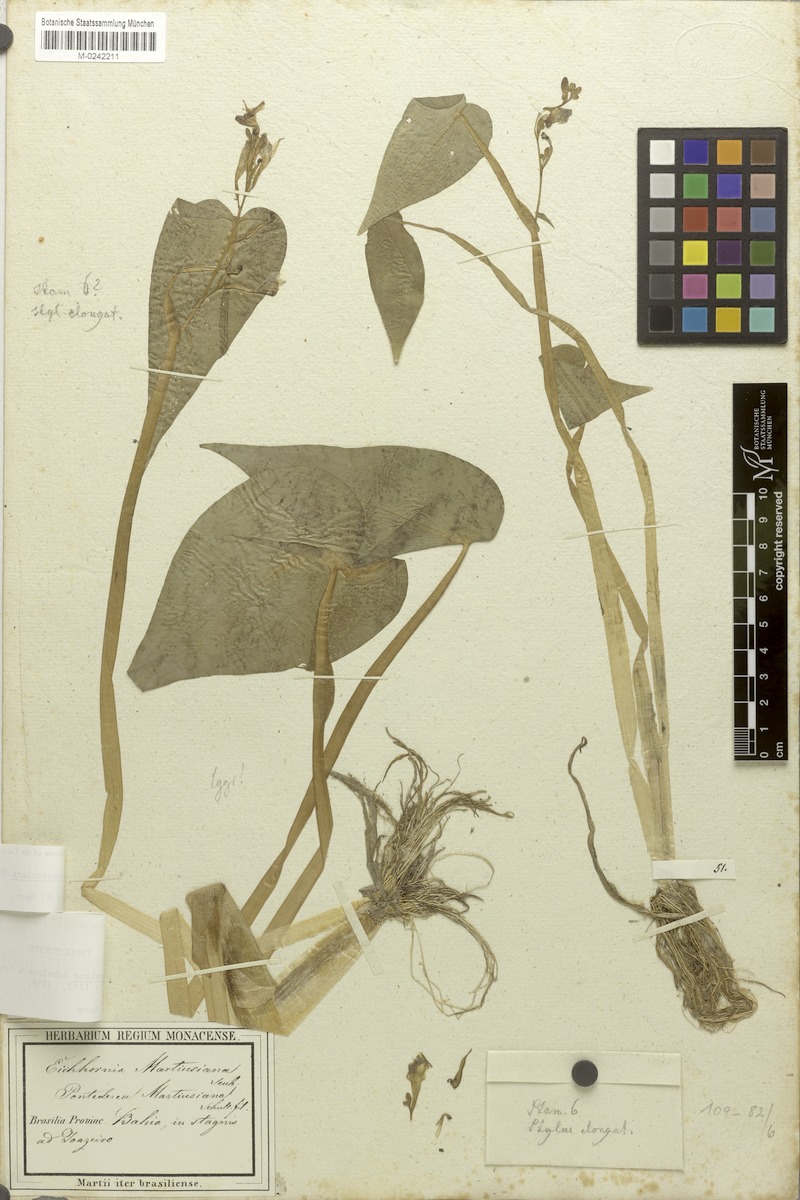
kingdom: Plantae
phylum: Tracheophyta
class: Liliopsida
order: Commelinales
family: Pontederiaceae
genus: Pontederia
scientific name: Pontederia paniculata
